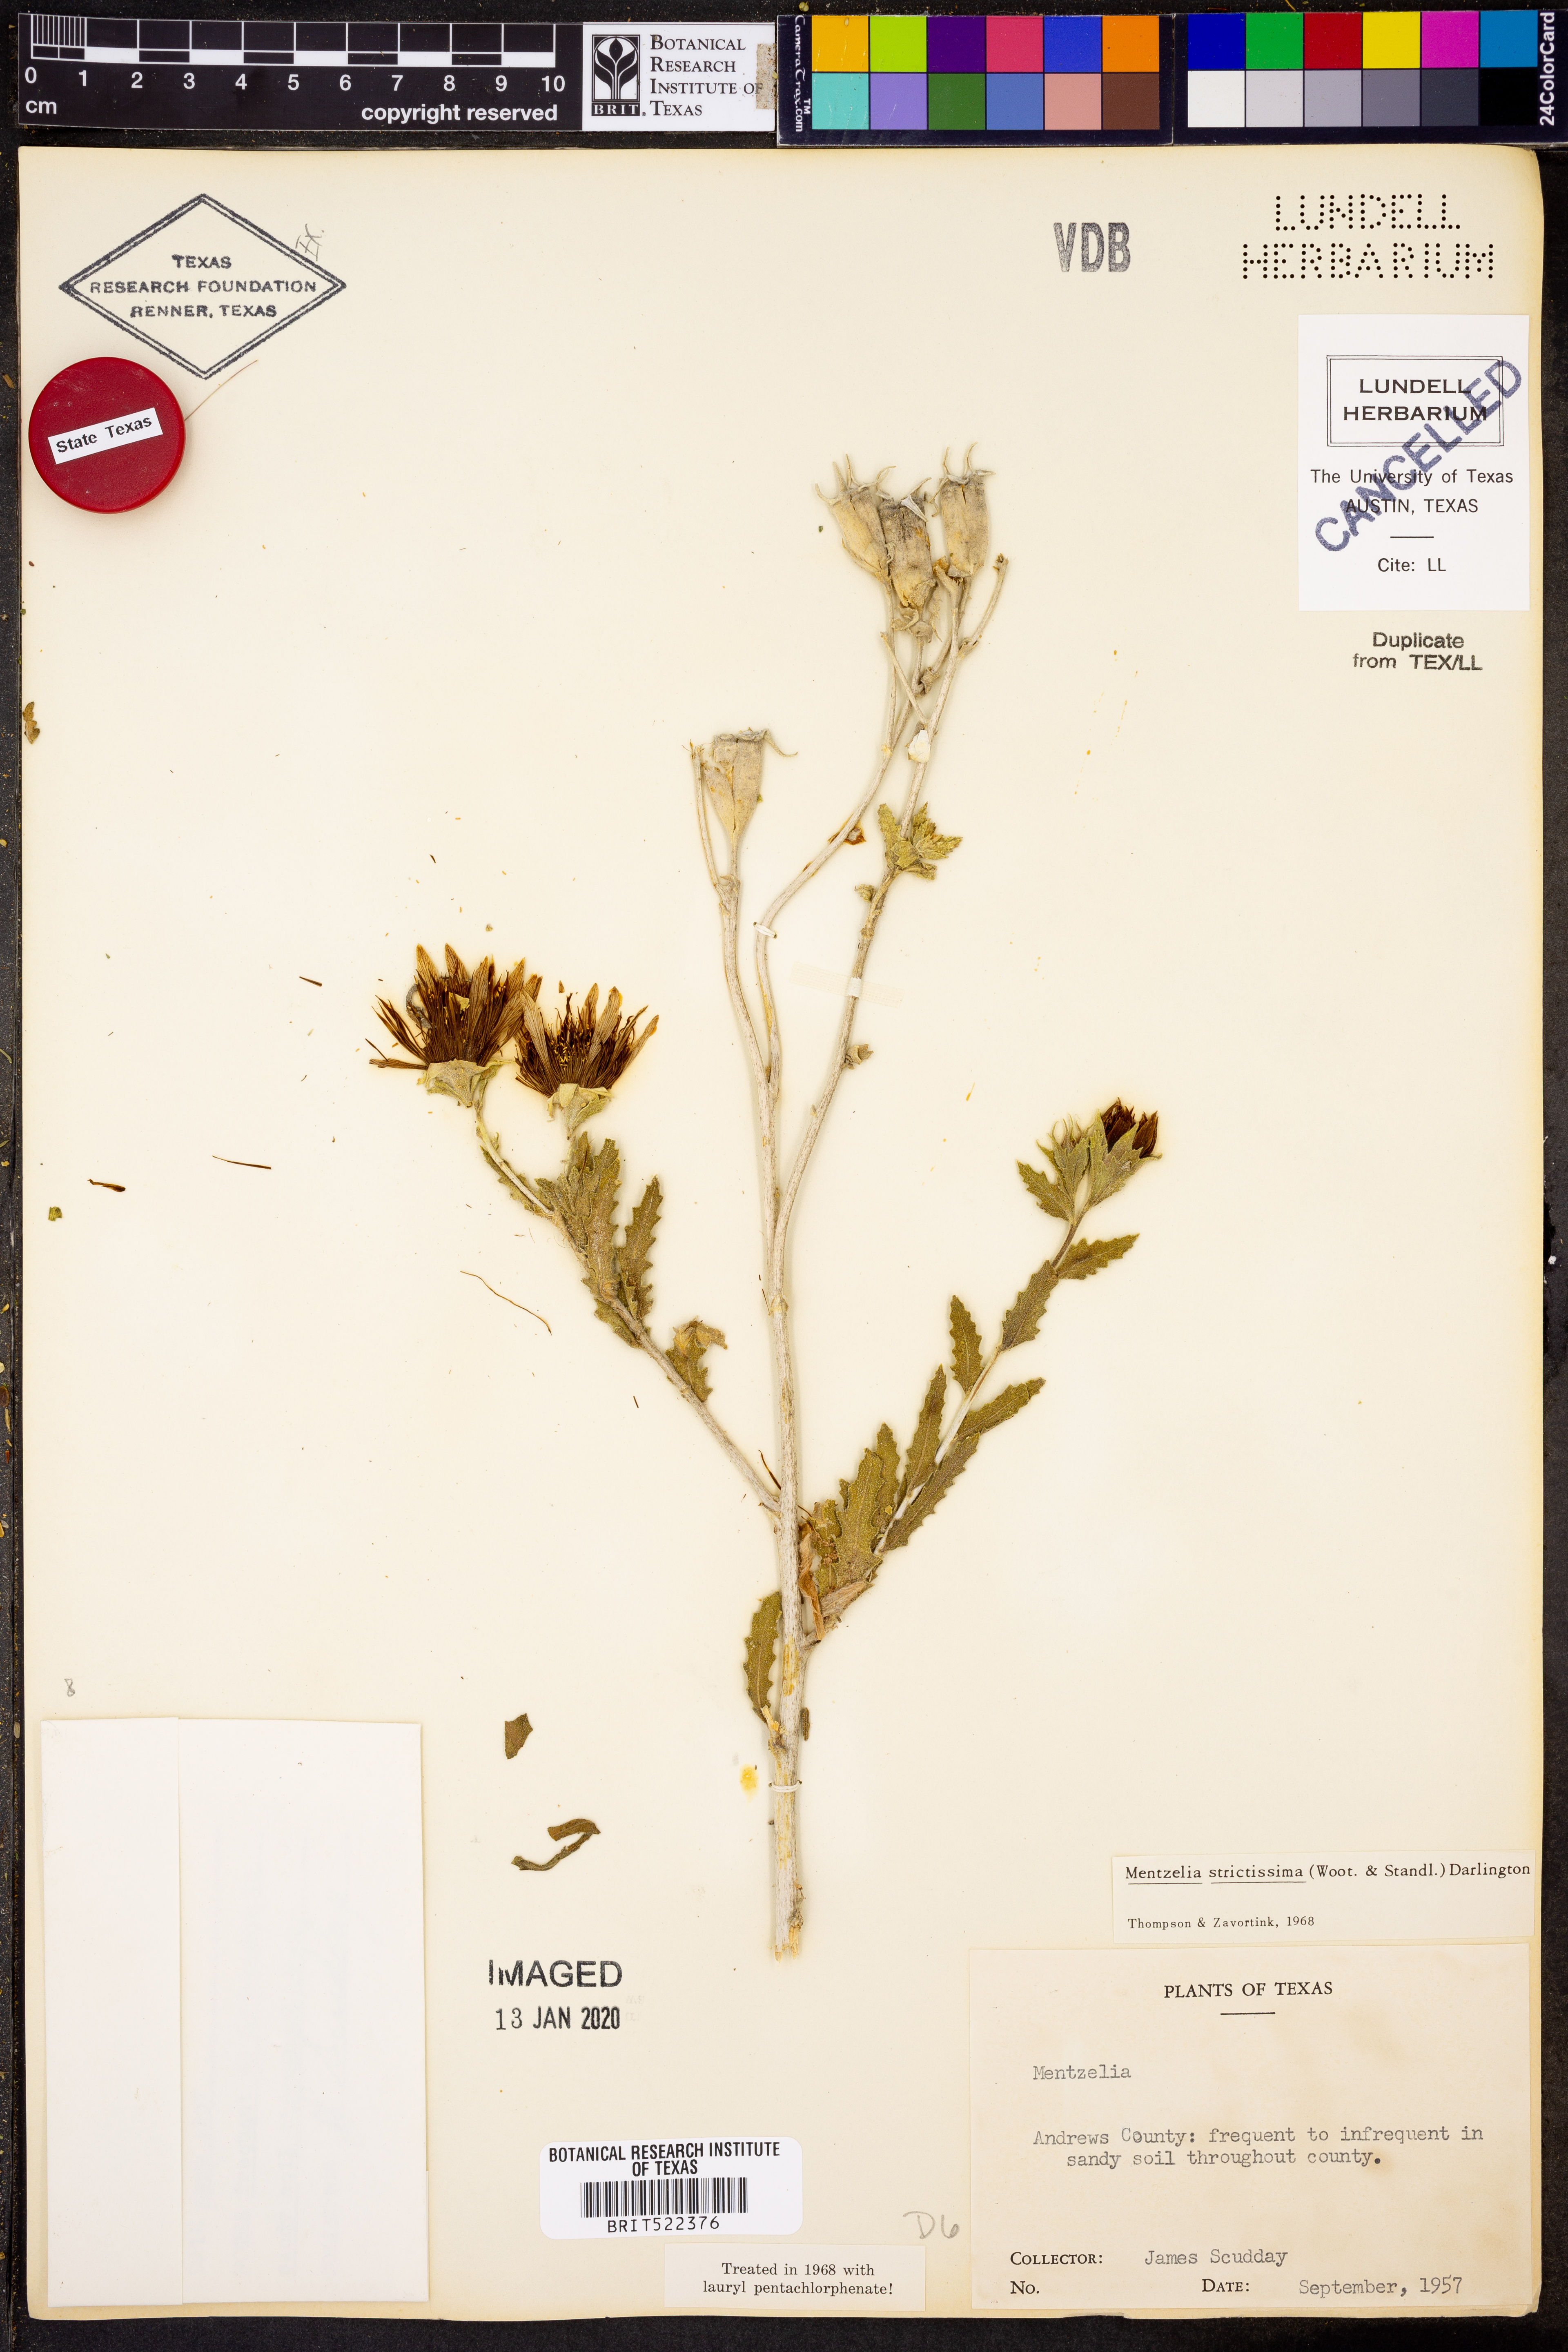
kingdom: Plantae
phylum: Tracheophyta
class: Magnoliopsida
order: Cornales
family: Loasaceae
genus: Mentzelia
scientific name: Mentzelia strictissima
